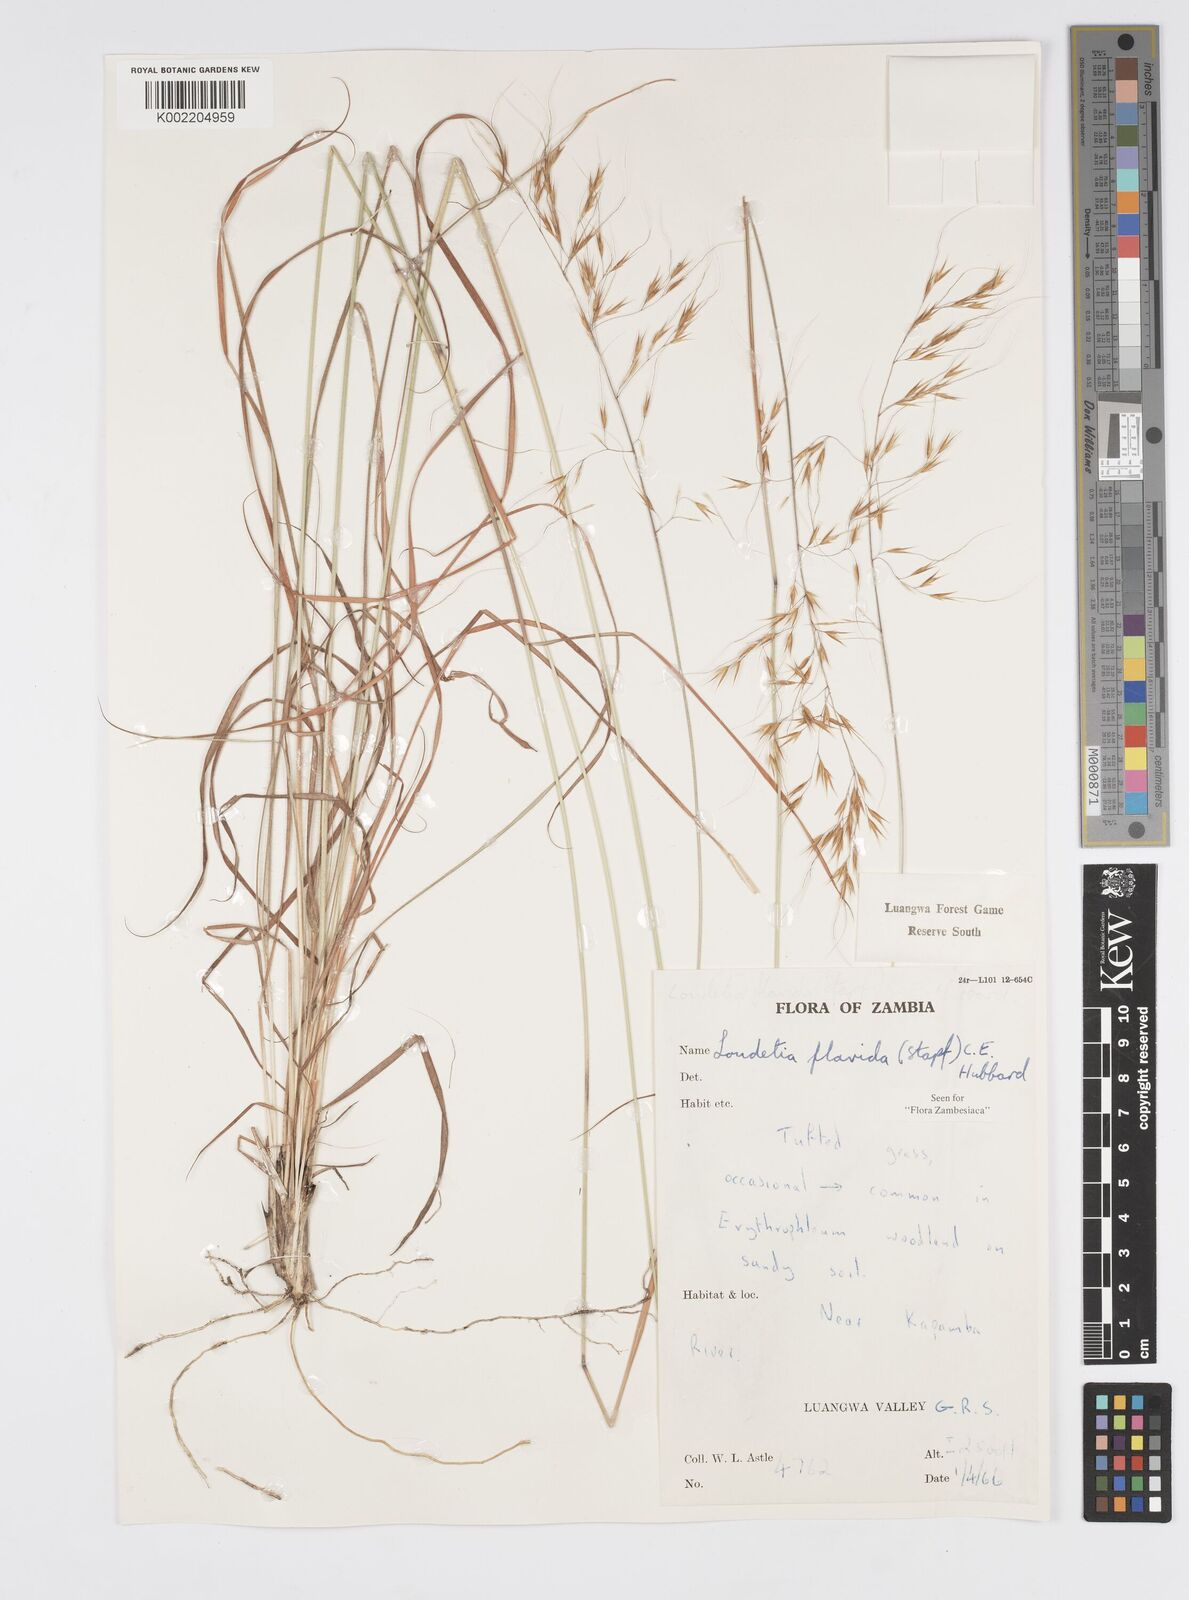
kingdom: Plantae
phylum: Tracheophyta
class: Liliopsida
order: Poales
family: Poaceae
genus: Loudetia
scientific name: Loudetia flavida
